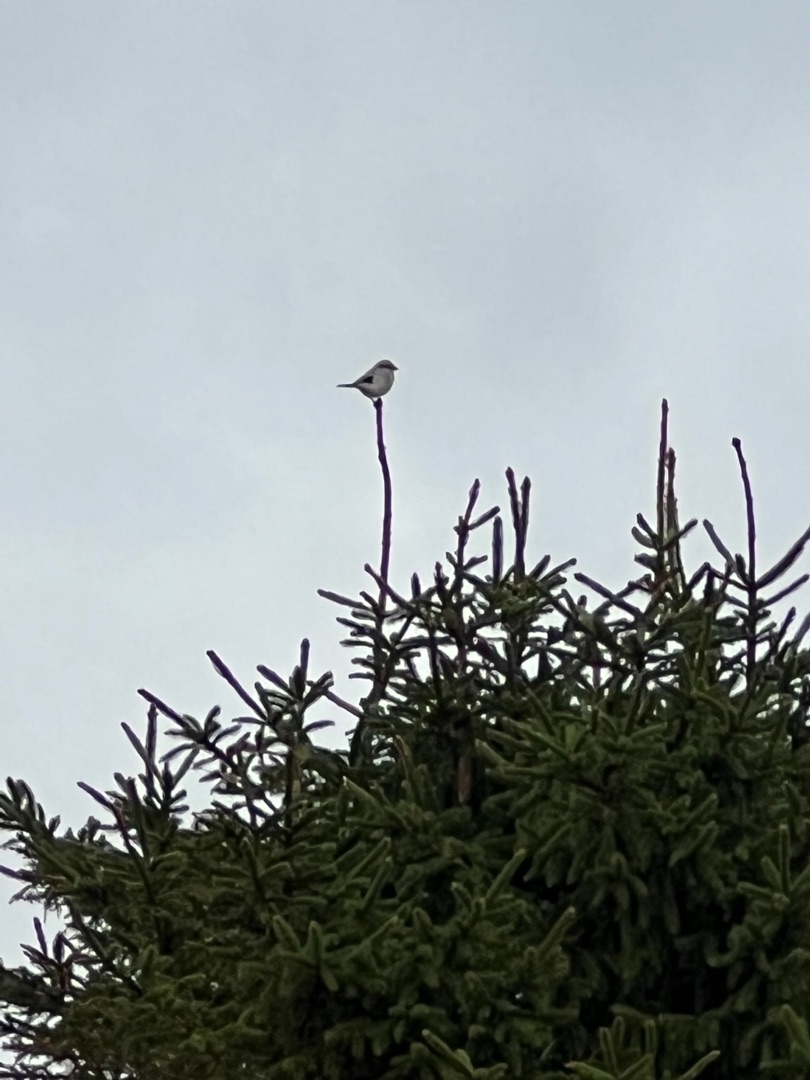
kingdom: Animalia
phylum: Chordata
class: Aves
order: Passeriformes
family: Laniidae
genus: Lanius
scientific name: Lanius excubitor
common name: Stor tornskade
